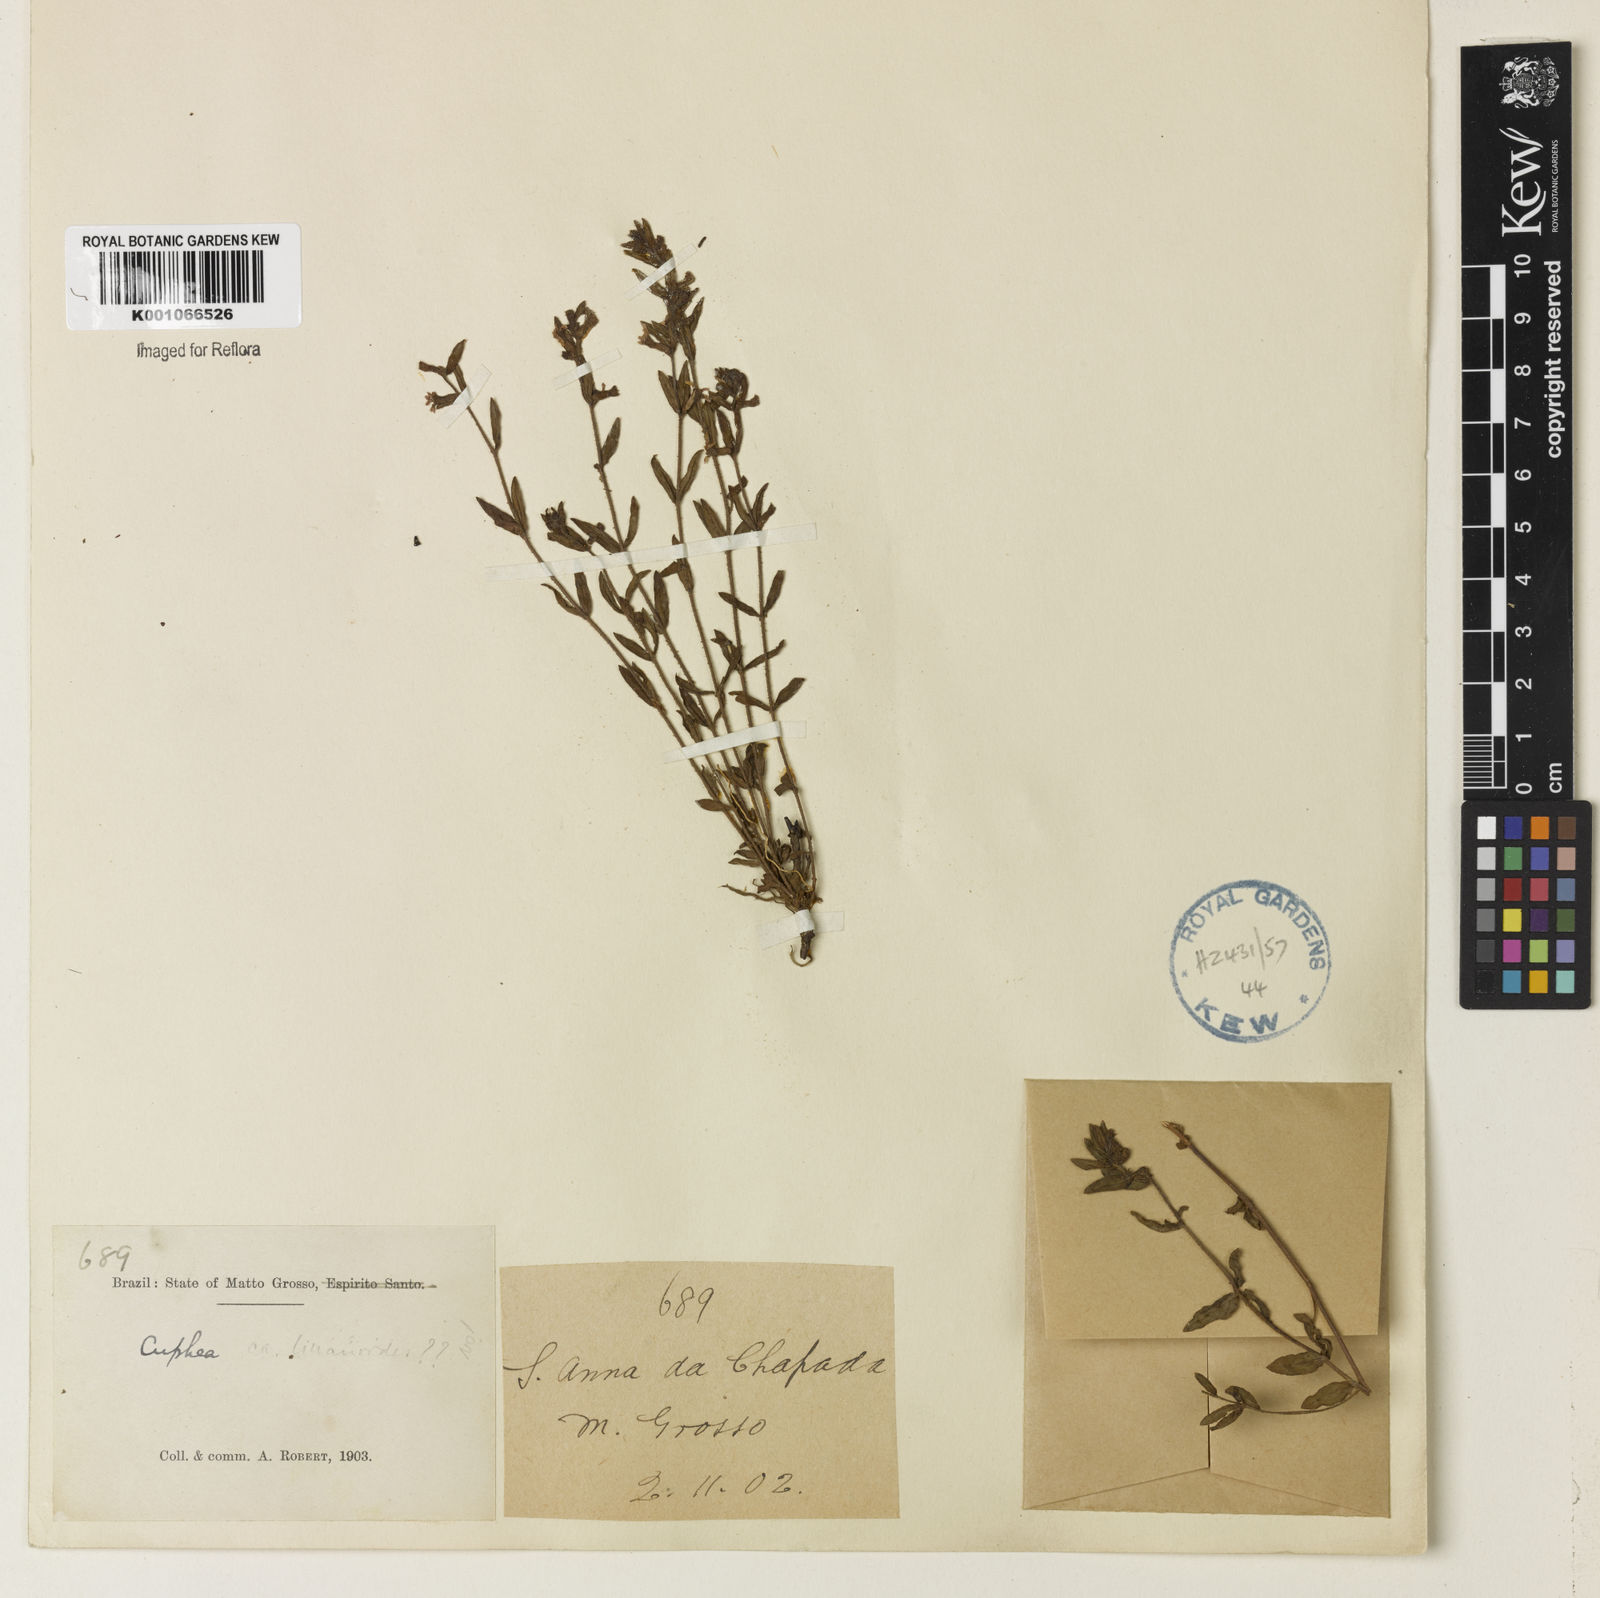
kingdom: Plantae
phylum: Tracheophyta
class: Magnoliopsida
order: Myrtales
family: Lythraceae
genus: Cuphea
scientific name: Cuphea linarioides
